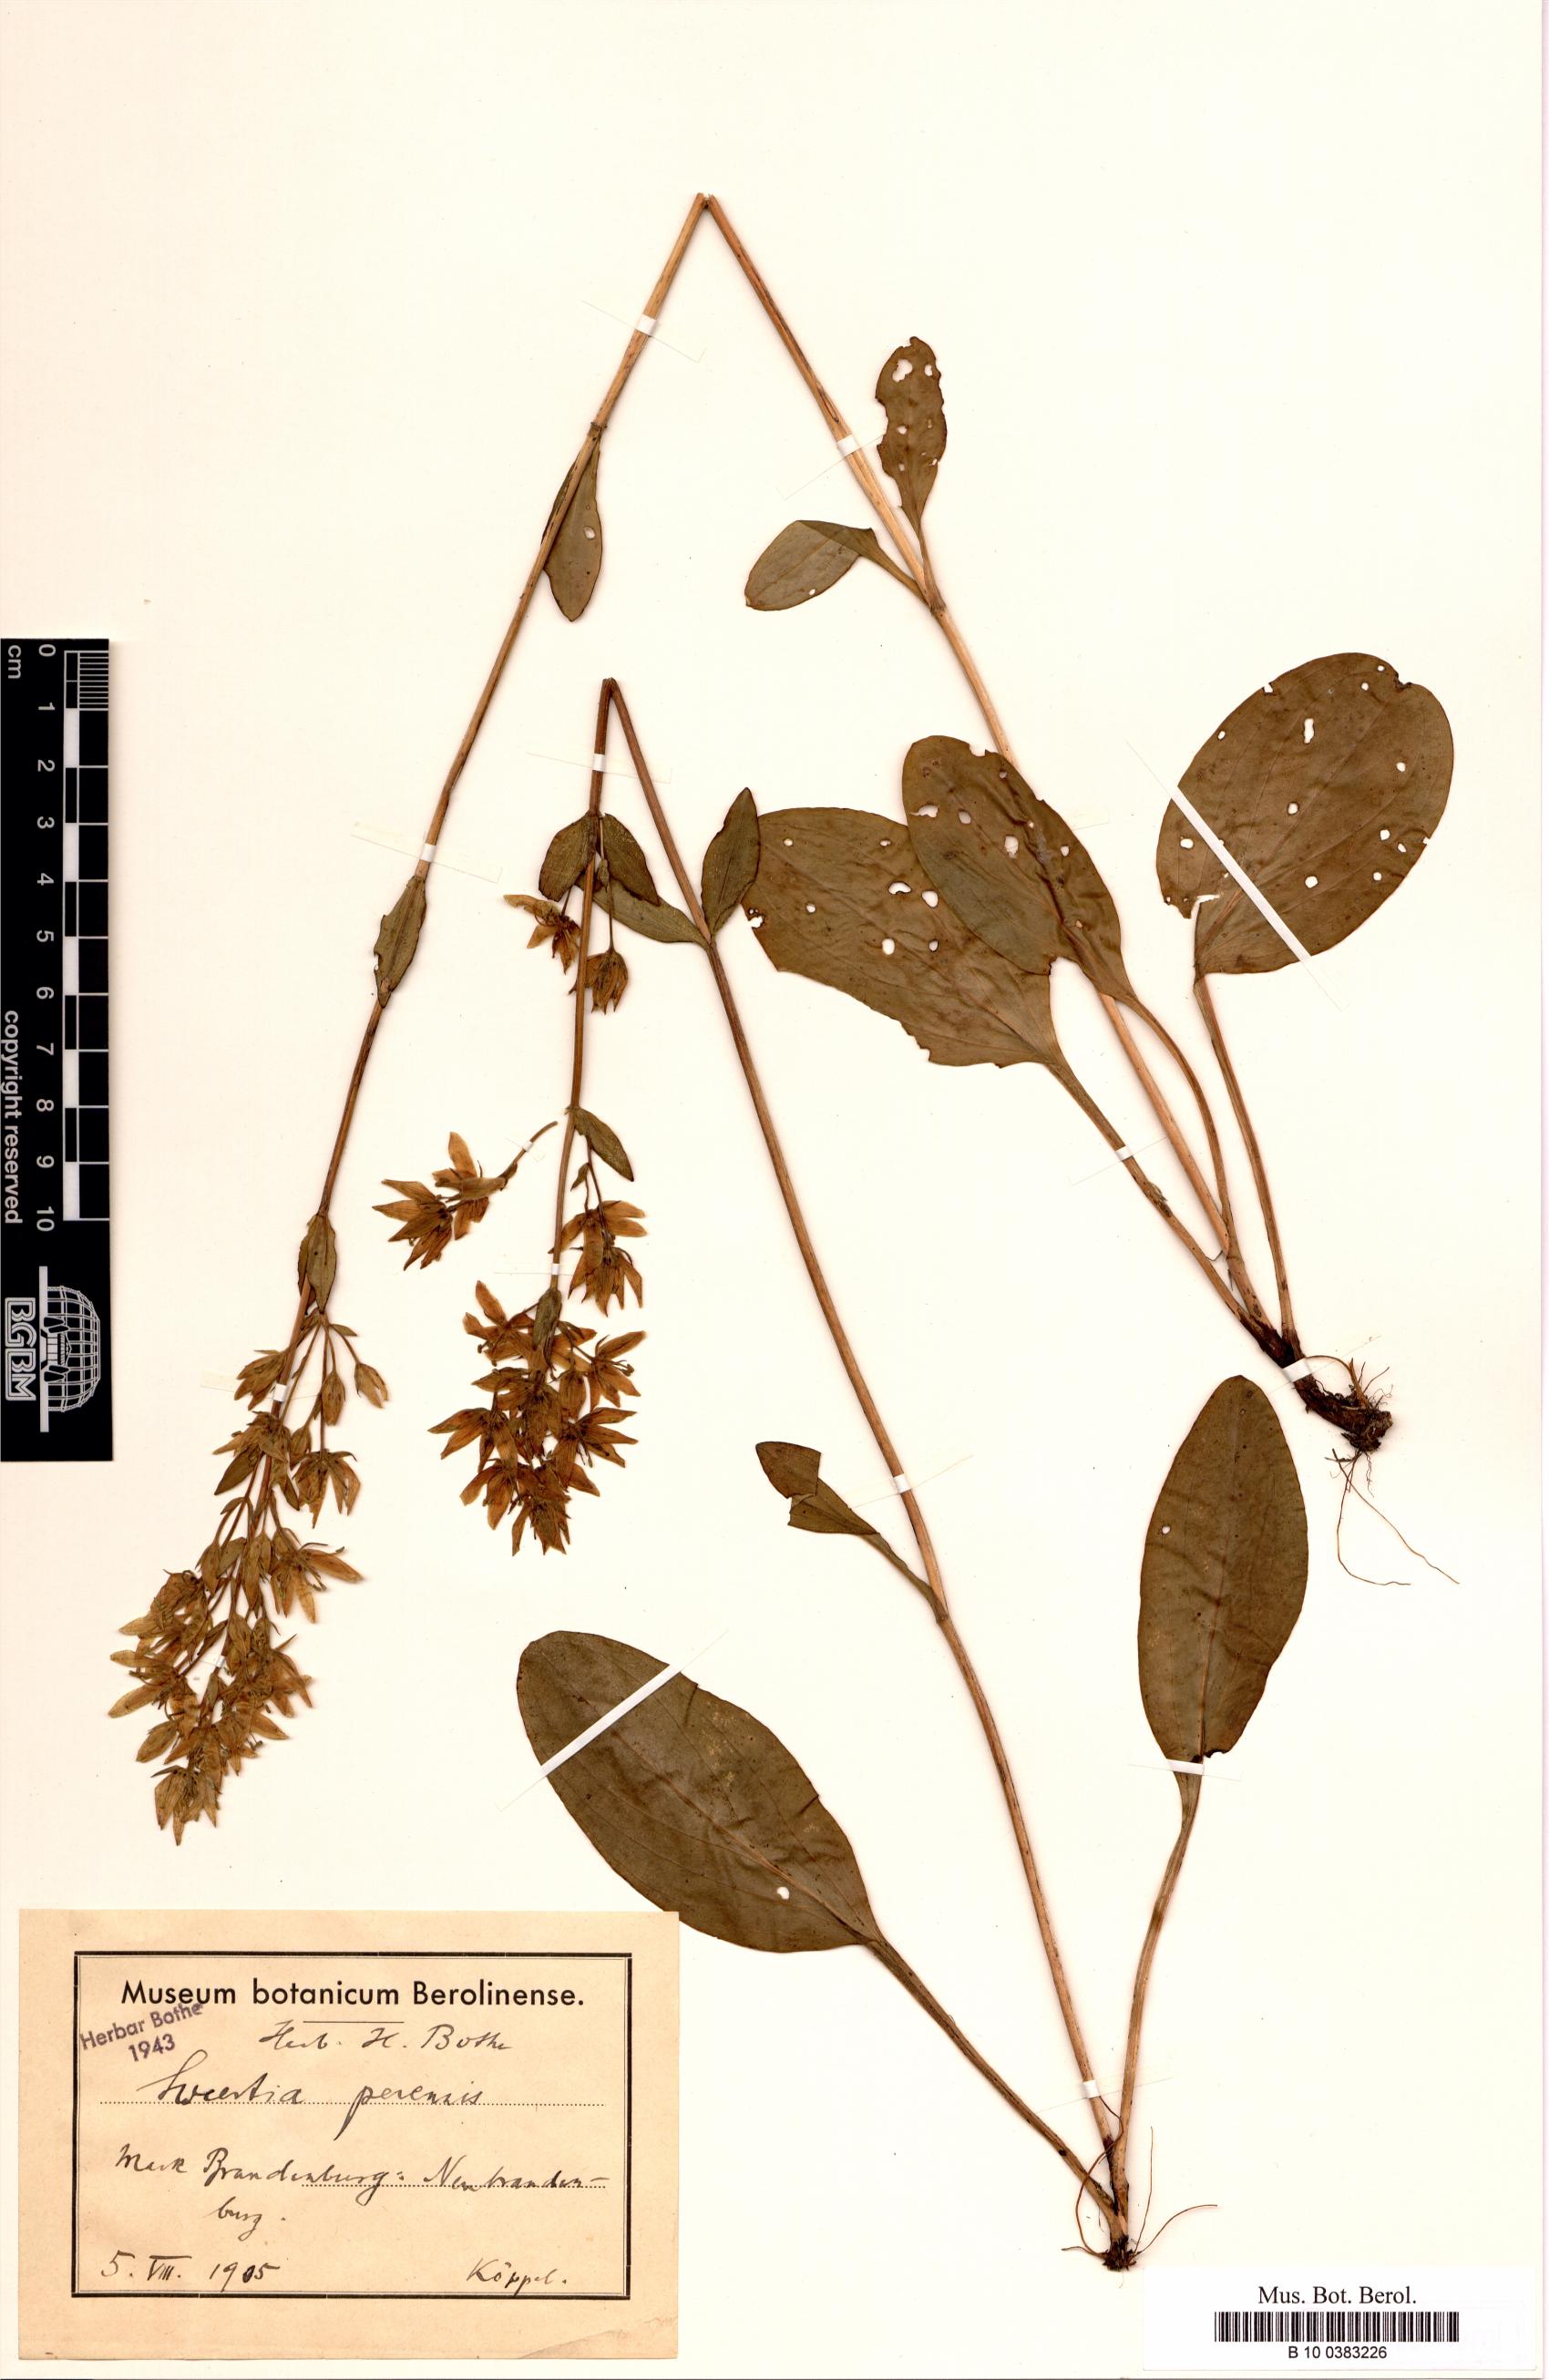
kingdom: Plantae
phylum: Tracheophyta
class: Magnoliopsida
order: Gentianales
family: Gentianaceae
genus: Swertia
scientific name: Swertia perennis
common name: Alpine bog swertia
